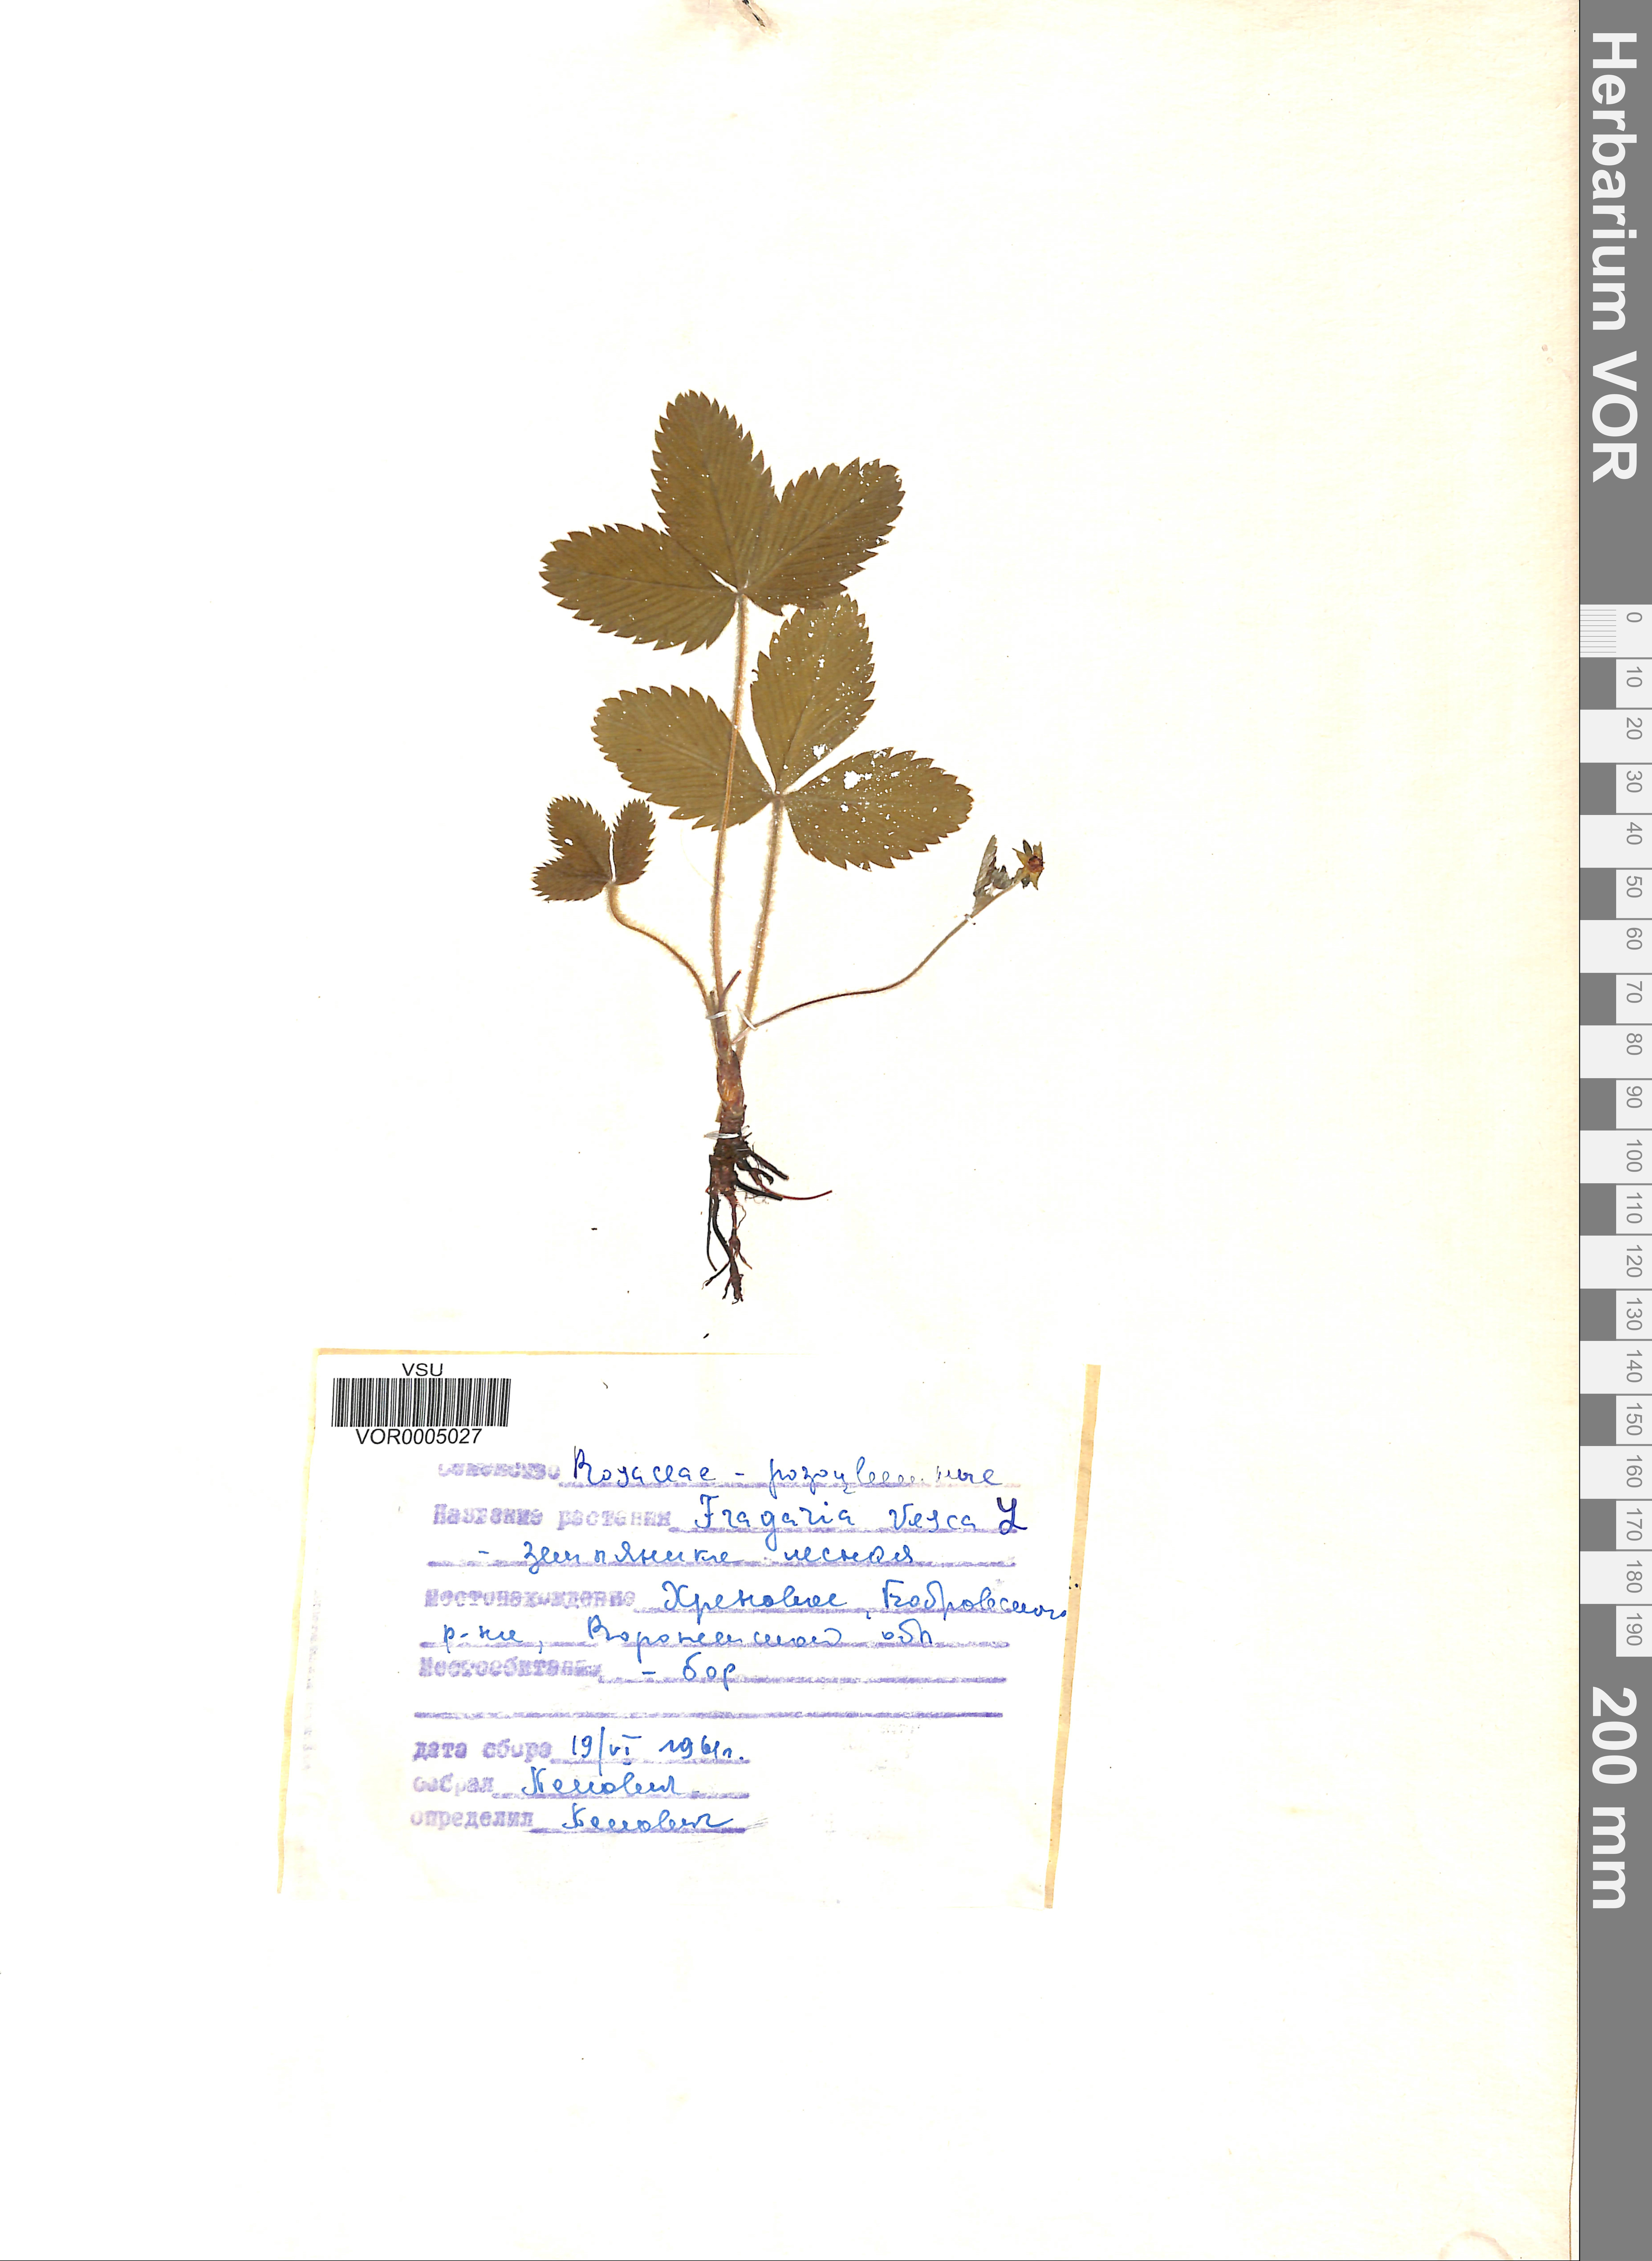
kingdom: Plantae
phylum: Tracheophyta
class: Magnoliopsida
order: Rosales
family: Rosaceae
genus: Fragaria
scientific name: Fragaria vesca
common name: Wild strawberry
